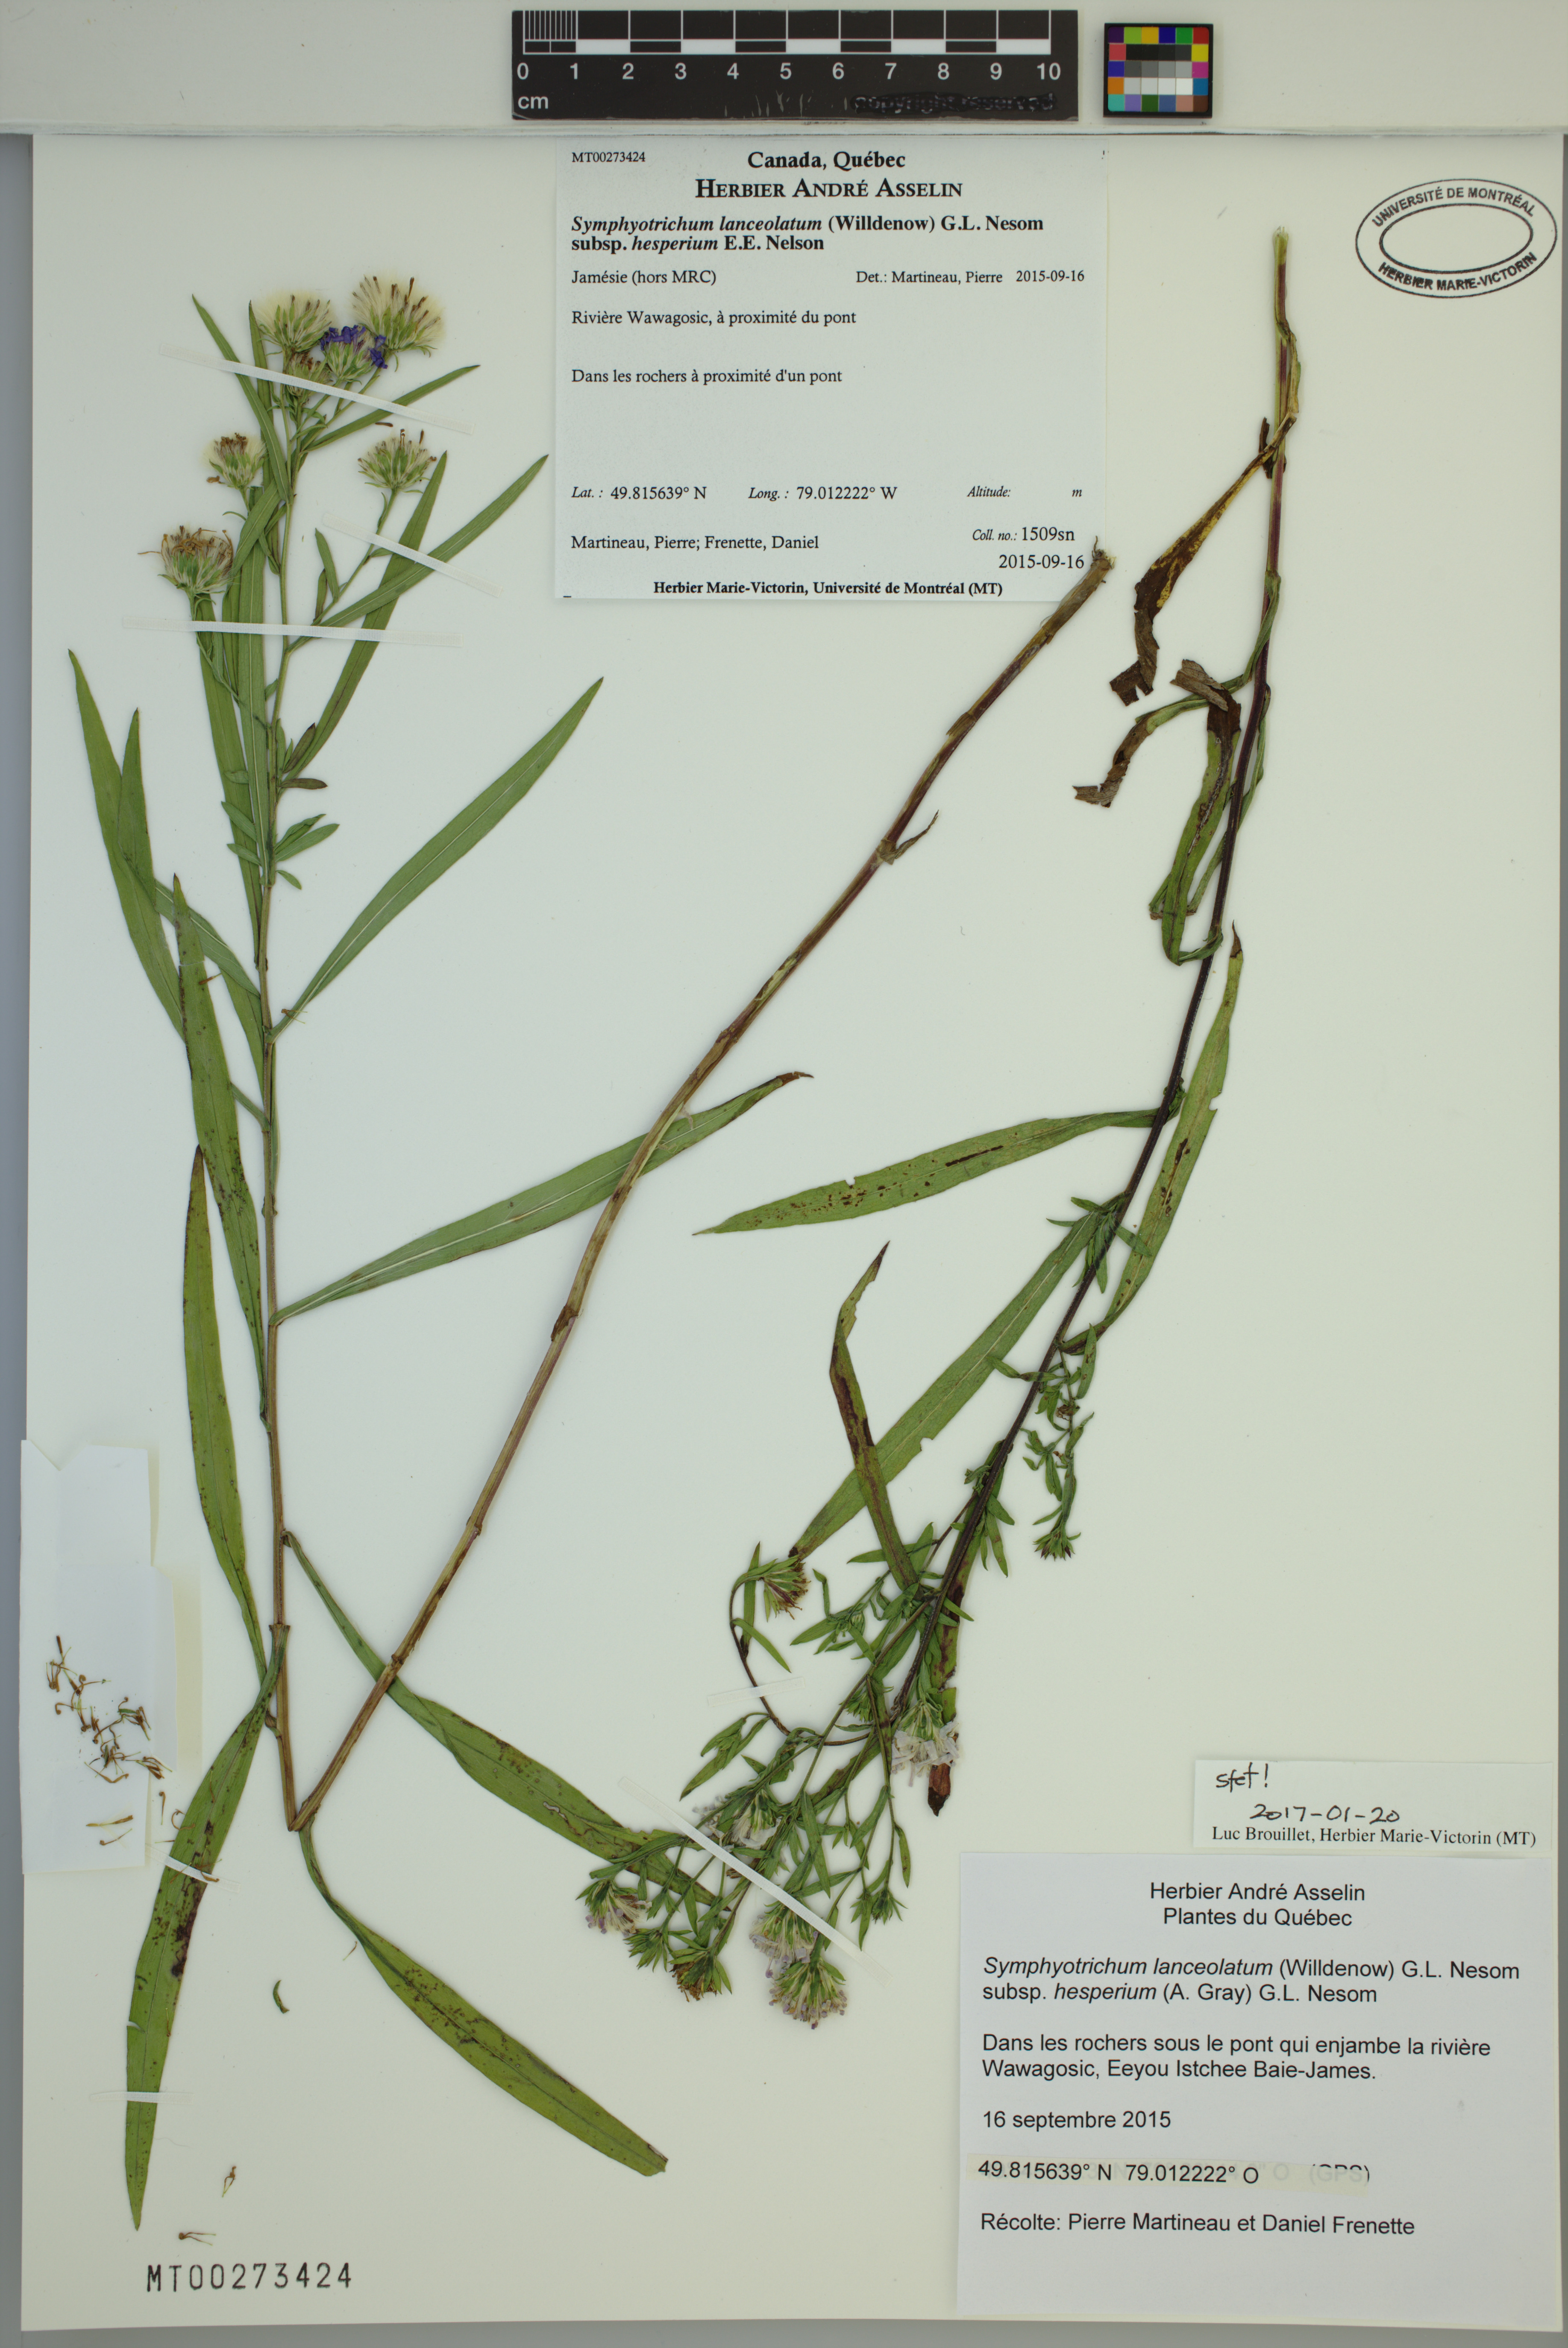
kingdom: Plantae
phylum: Tracheophyta
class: Magnoliopsida
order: Asterales
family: Asteraceae
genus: Symphyotrichum
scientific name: Symphyotrichum lanceolatum
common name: Panicled aster
